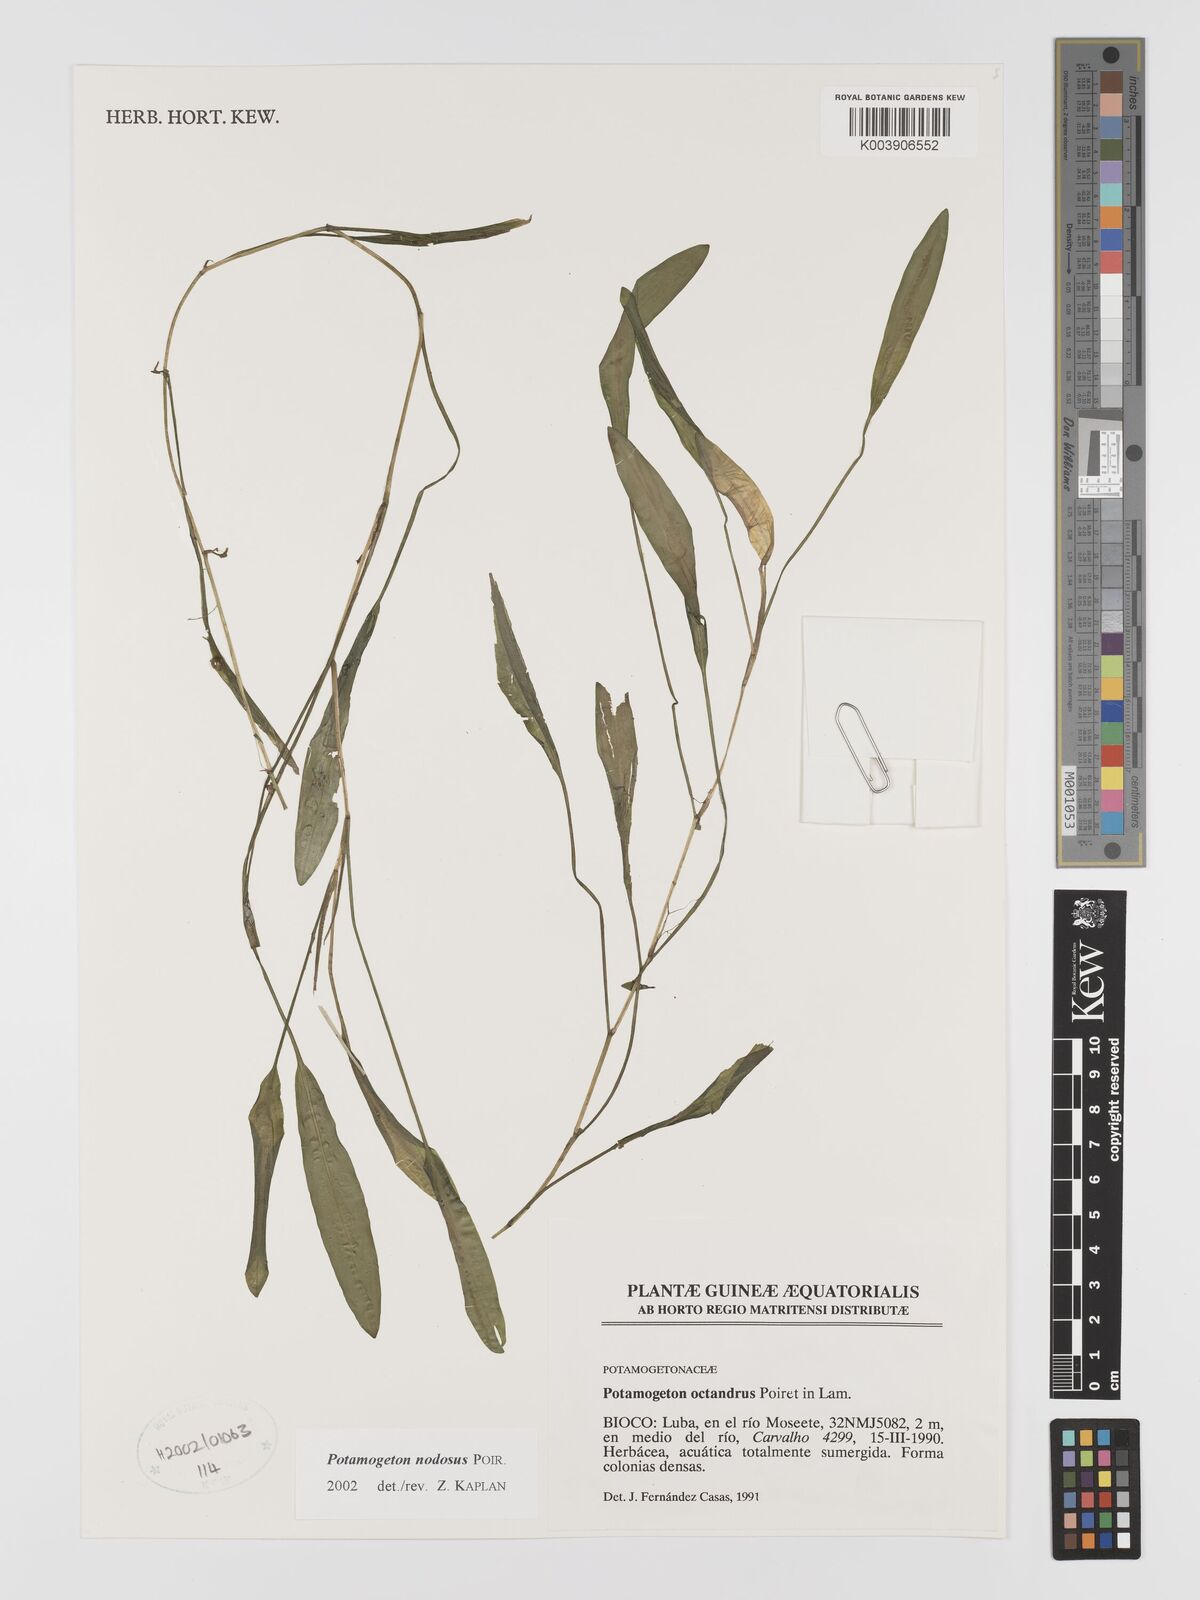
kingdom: Plantae
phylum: Tracheophyta
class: Liliopsida
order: Alismatales
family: Potamogetonaceae
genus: Potamogeton
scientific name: Potamogeton nodosus
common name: Loddon pondweed
